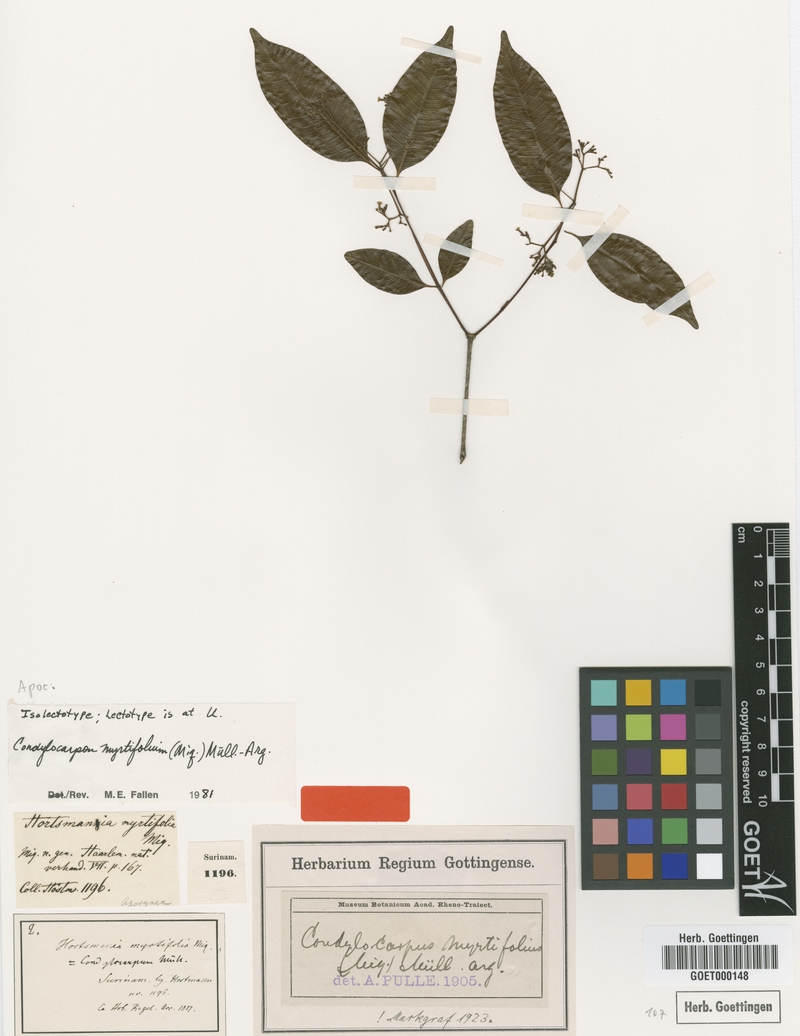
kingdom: Plantae
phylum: Tracheophyta
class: Magnoliopsida
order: Gentianales
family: Apocynaceae
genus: Condylocarpon
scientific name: Condylocarpon myrtifolium
